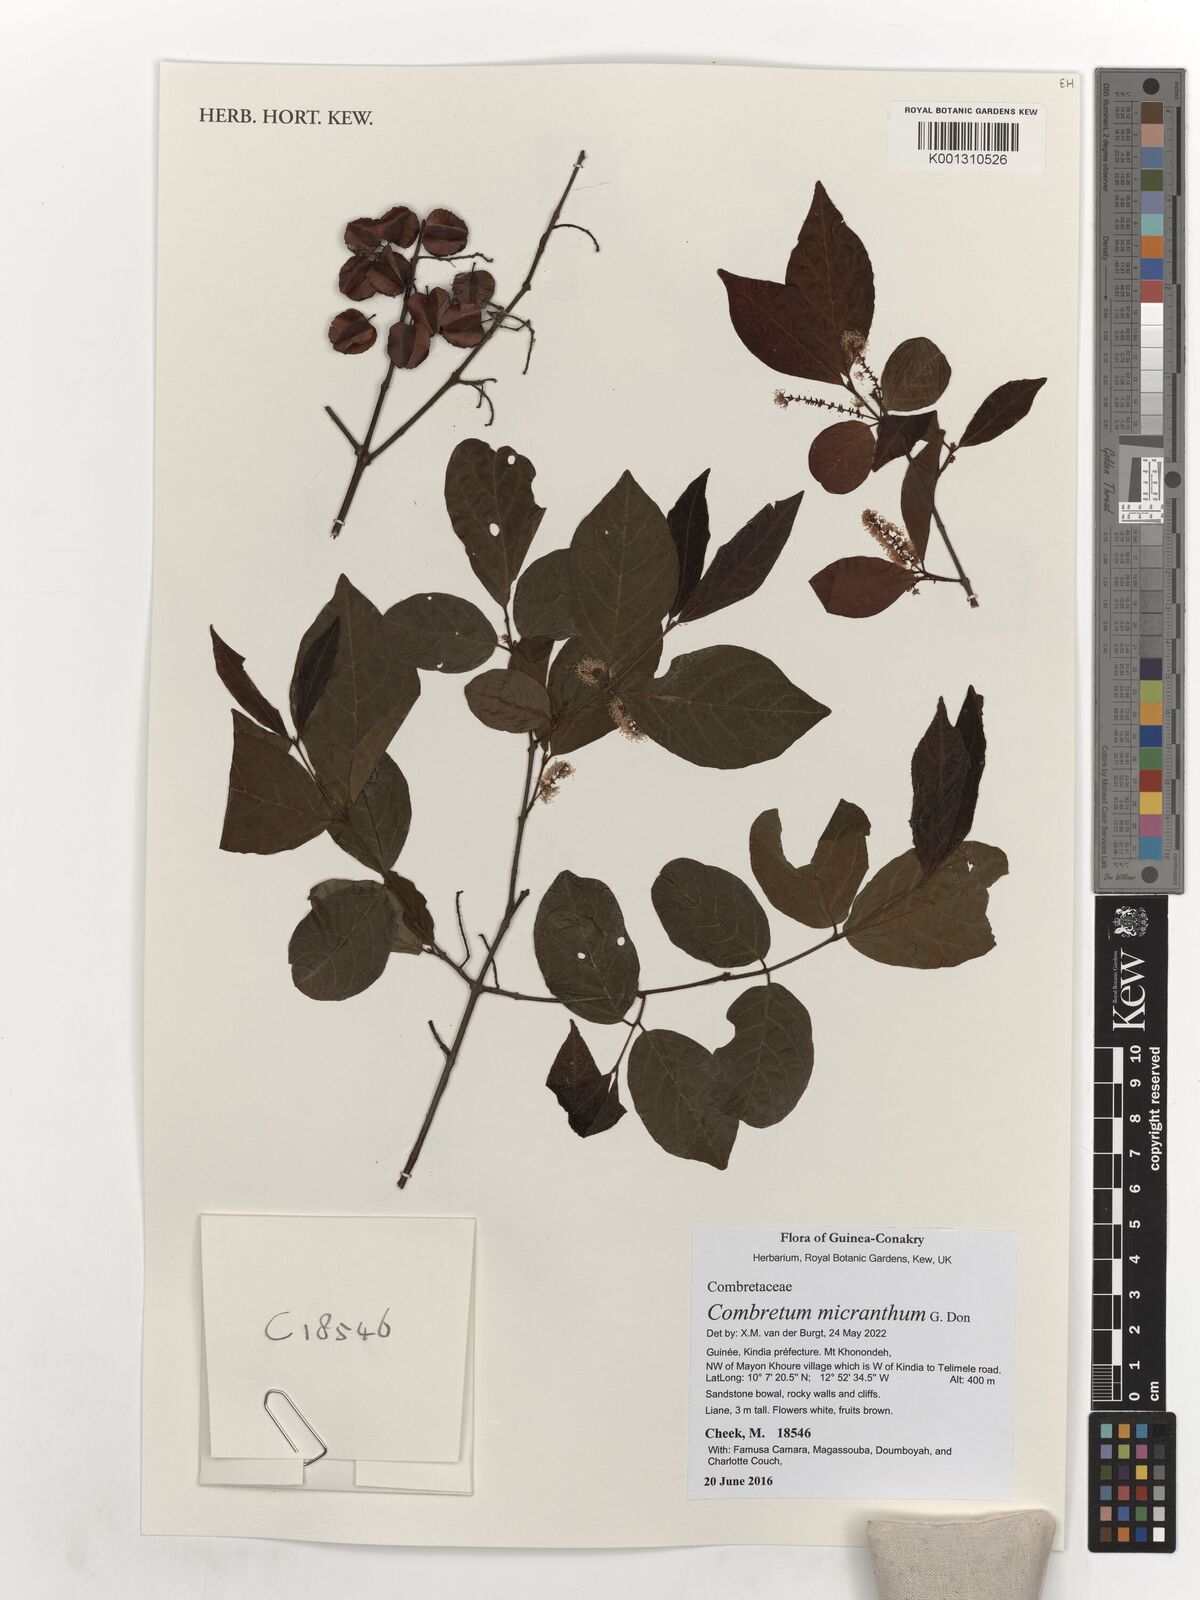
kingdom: Plantae
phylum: Tracheophyta
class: Magnoliopsida
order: Myrtales
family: Combretaceae
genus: Combretum
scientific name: Combretum micranthum
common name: Opium-antidote
